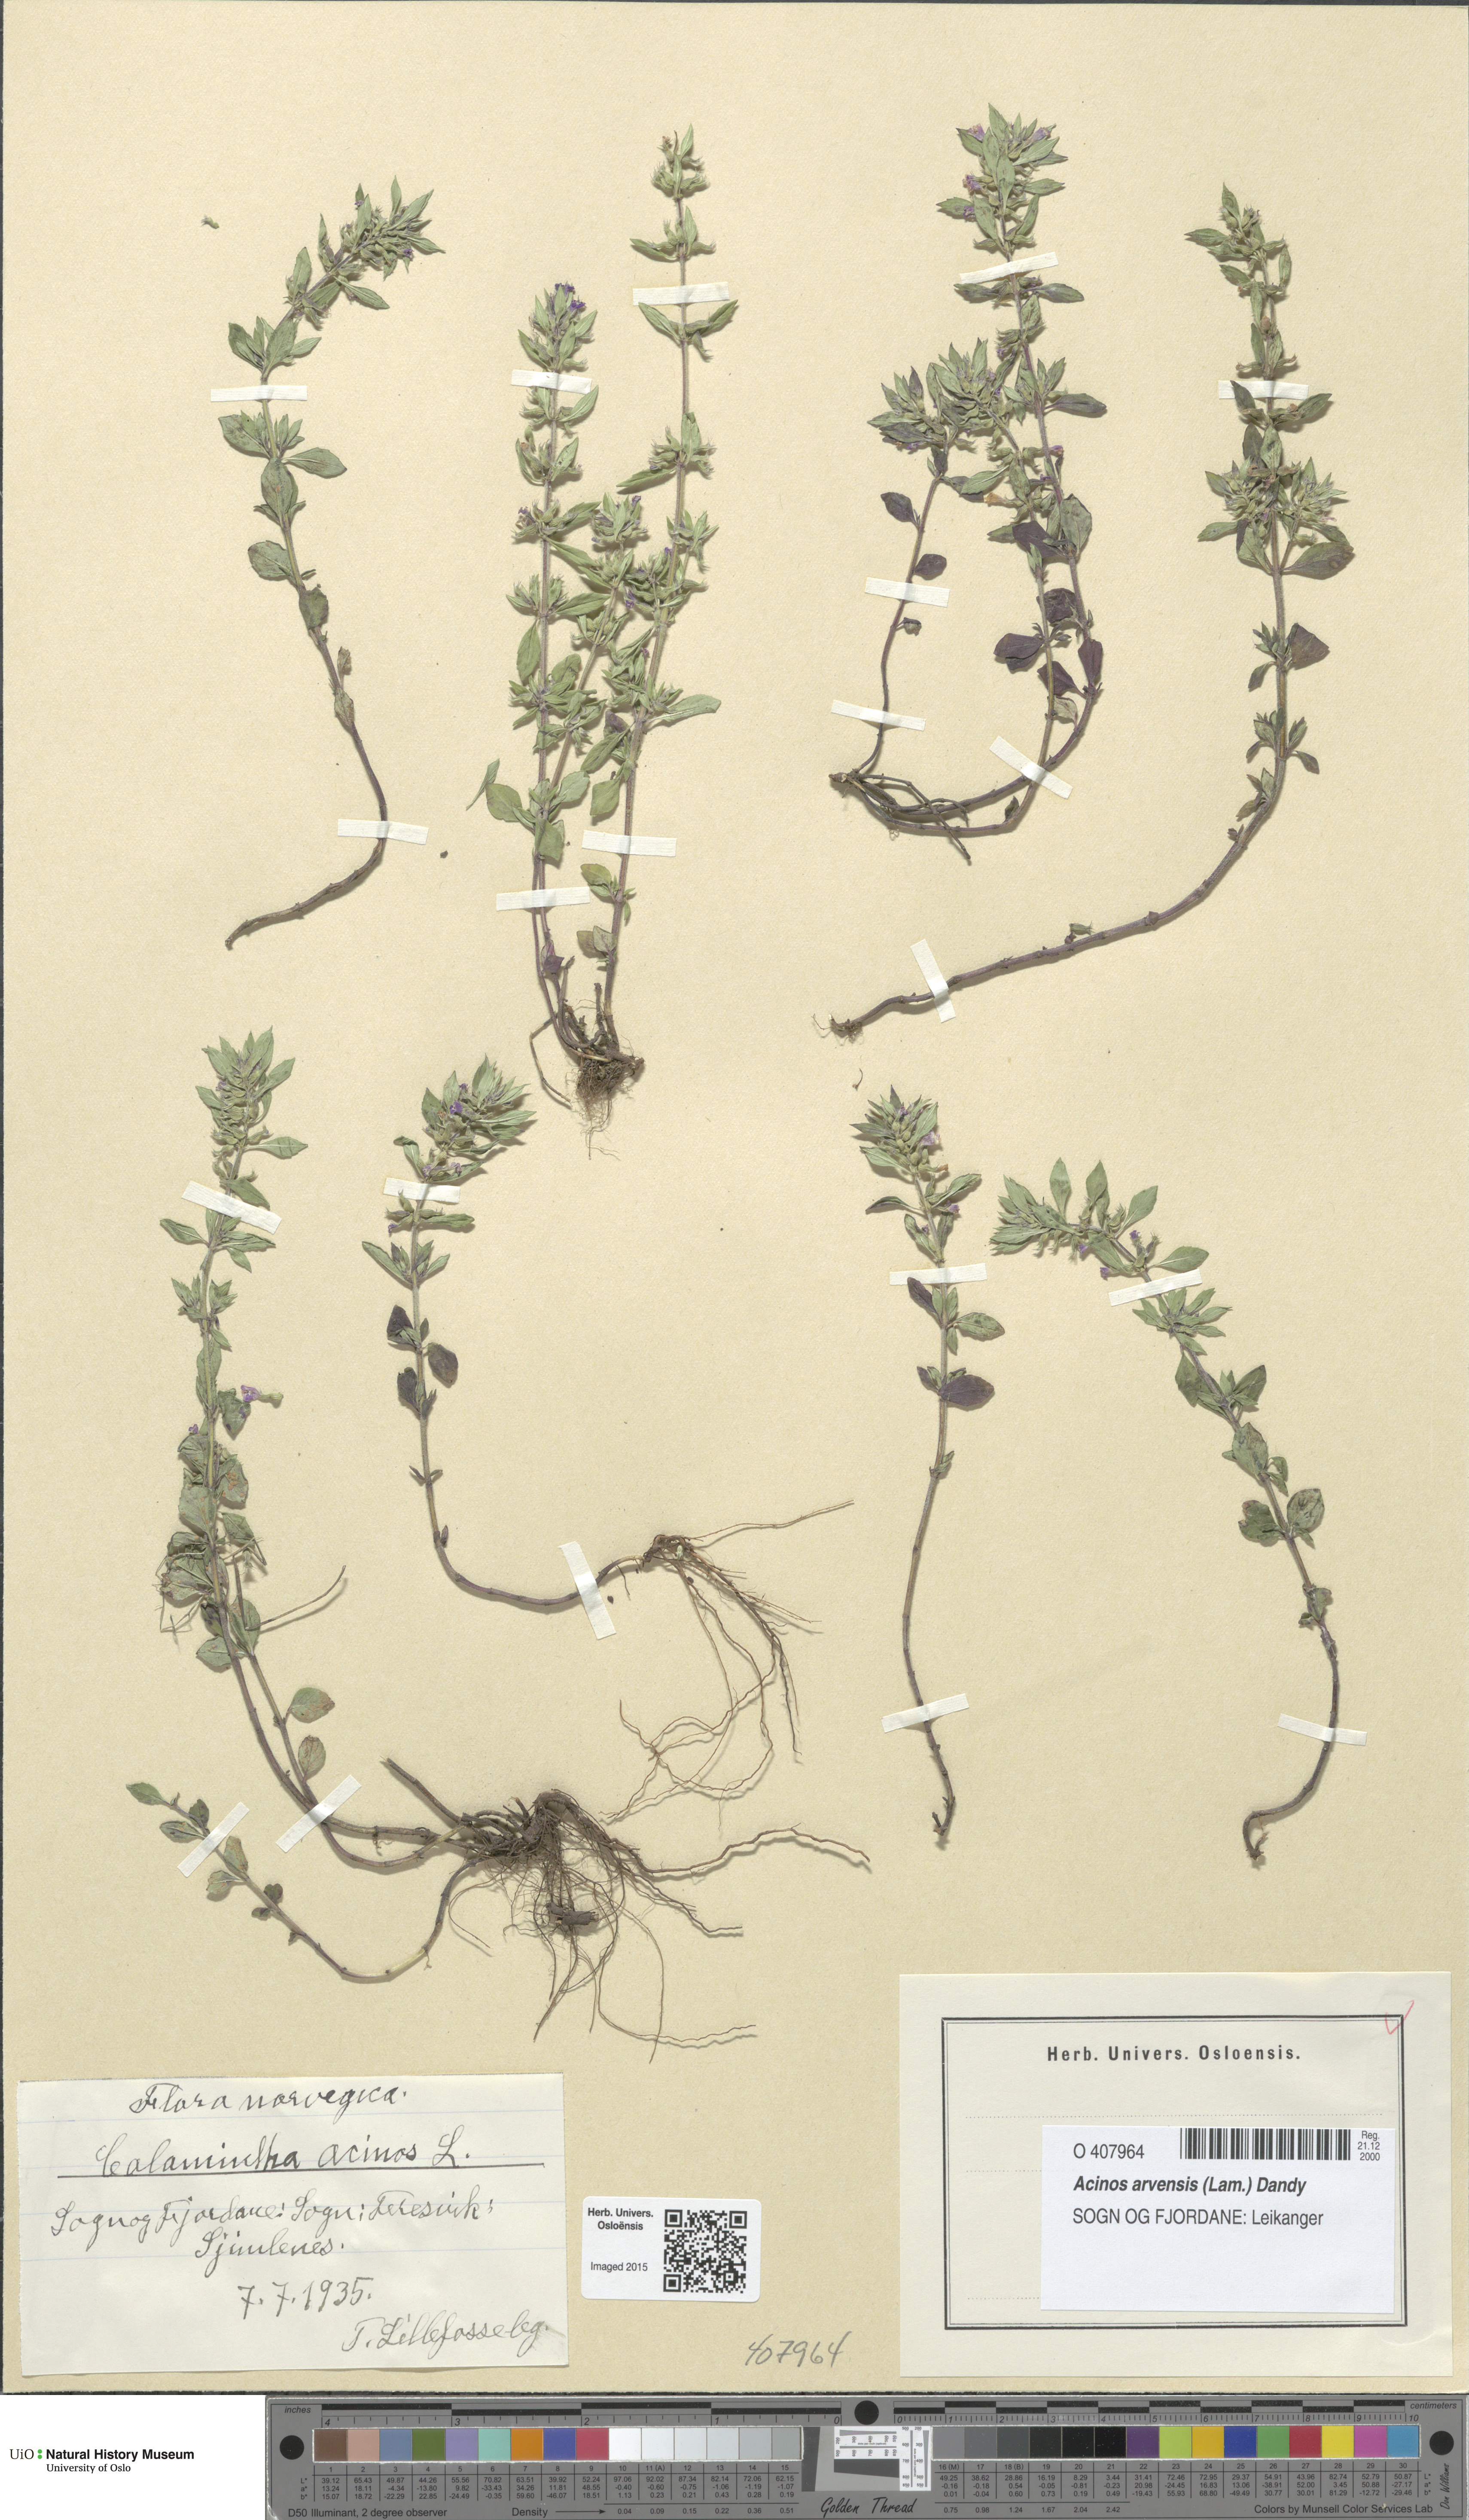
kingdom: Plantae
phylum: Tracheophyta
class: Magnoliopsida
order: Lamiales
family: Lamiaceae
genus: Clinopodium
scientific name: Clinopodium acinos
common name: Basil thyme
